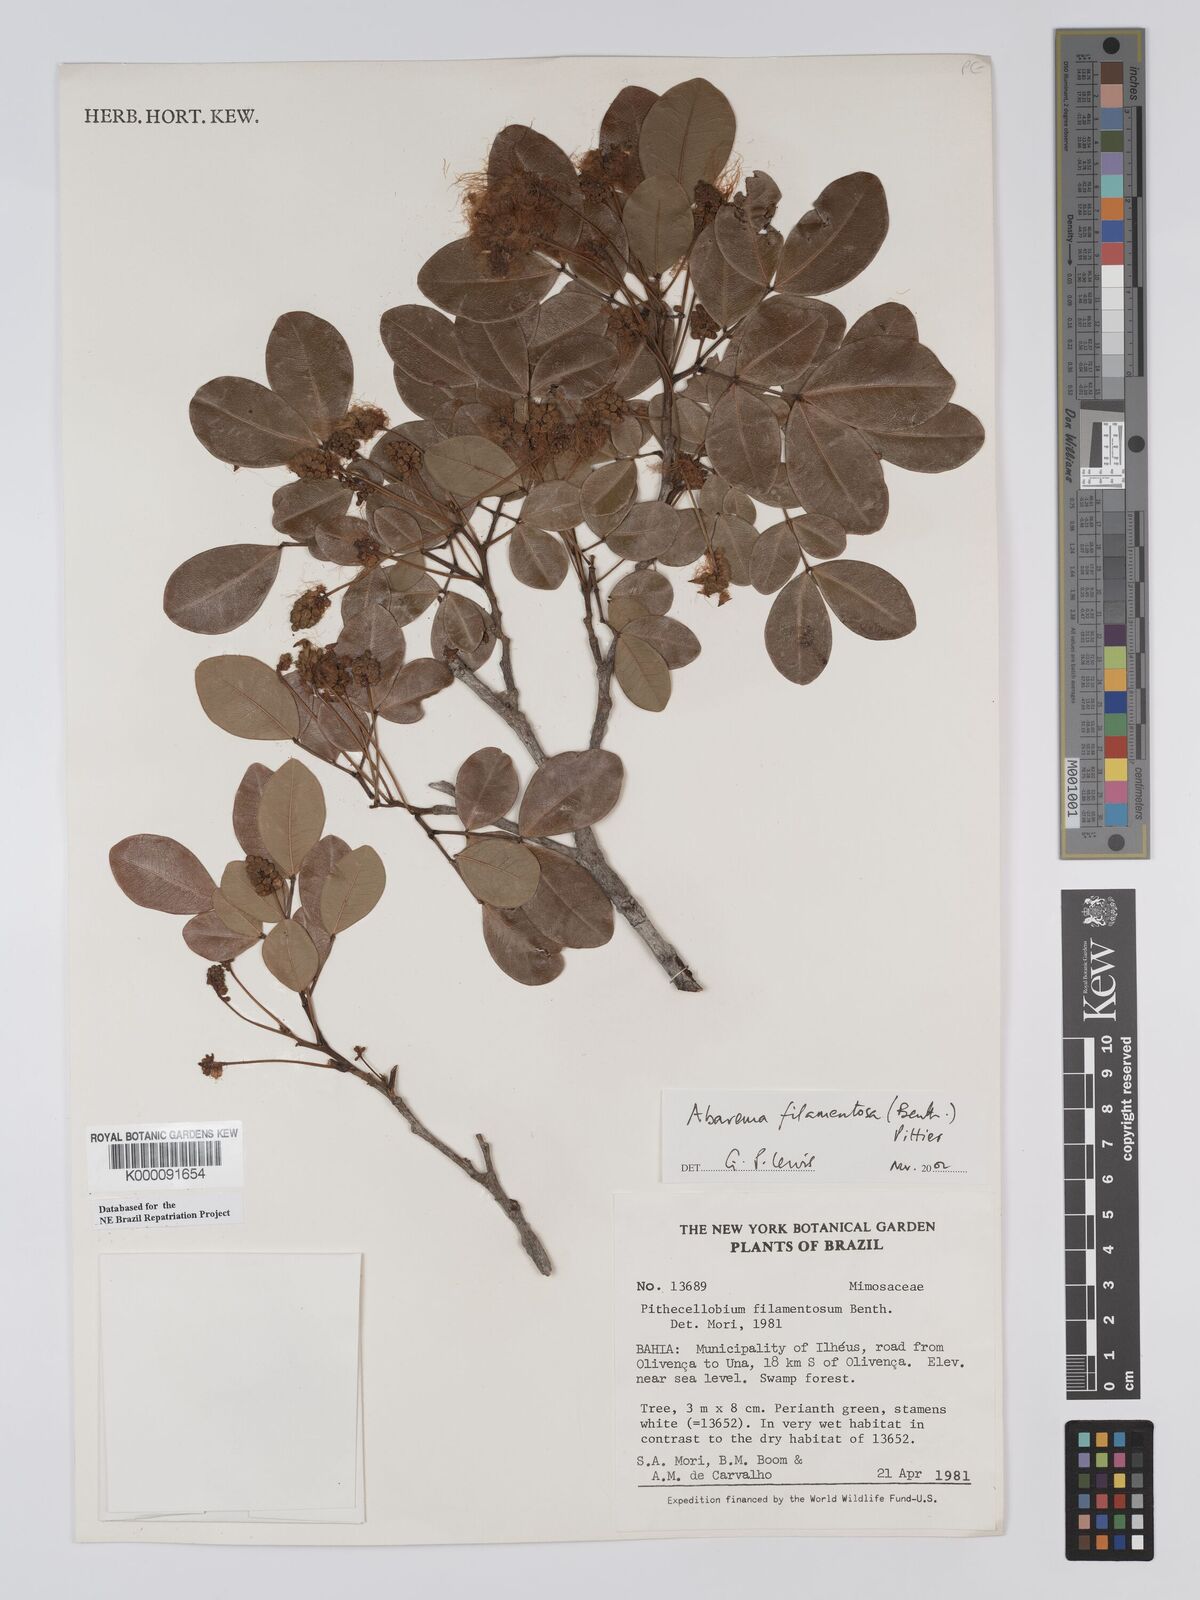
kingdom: Plantae
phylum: Tracheophyta
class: Magnoliopsida
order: Fabales
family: Fabaceae
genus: Jupunba
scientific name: Jupunba filamentosa
